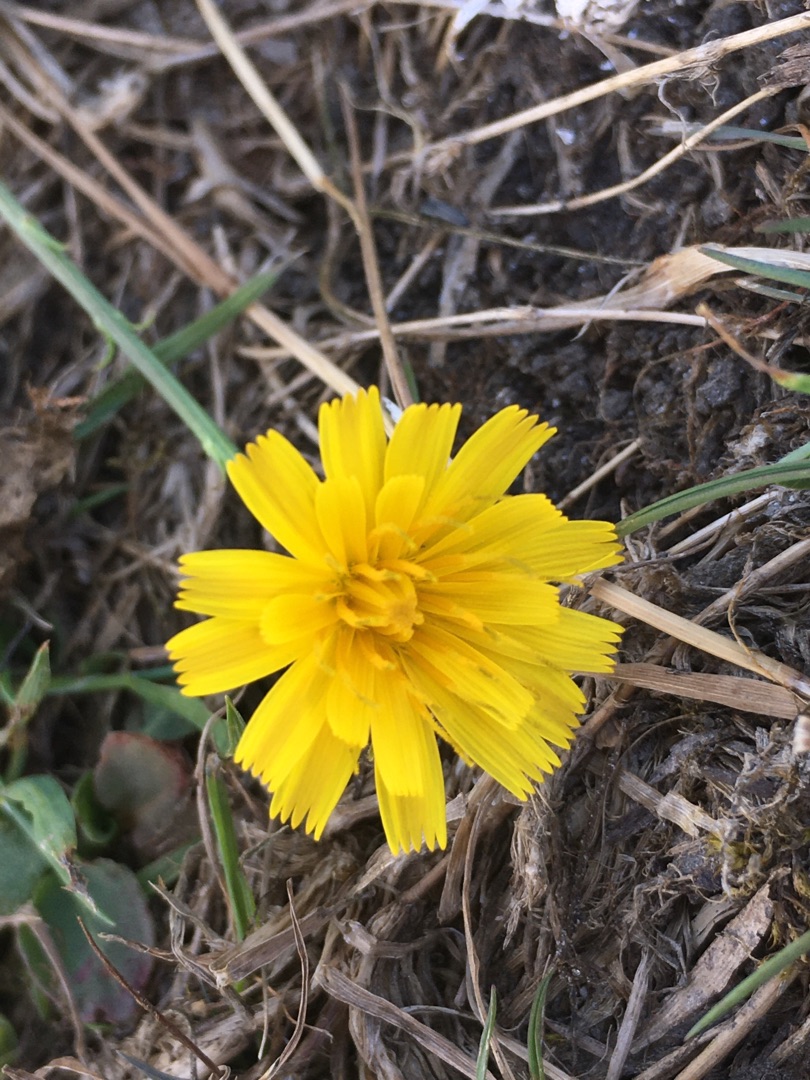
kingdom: Plantae
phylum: Tracheophyta
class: Magnoliopsida
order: Asterales
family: Asteraceae
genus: Scorzoneroides
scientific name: Scorzoneroides autumnalis
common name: Høst-borst
